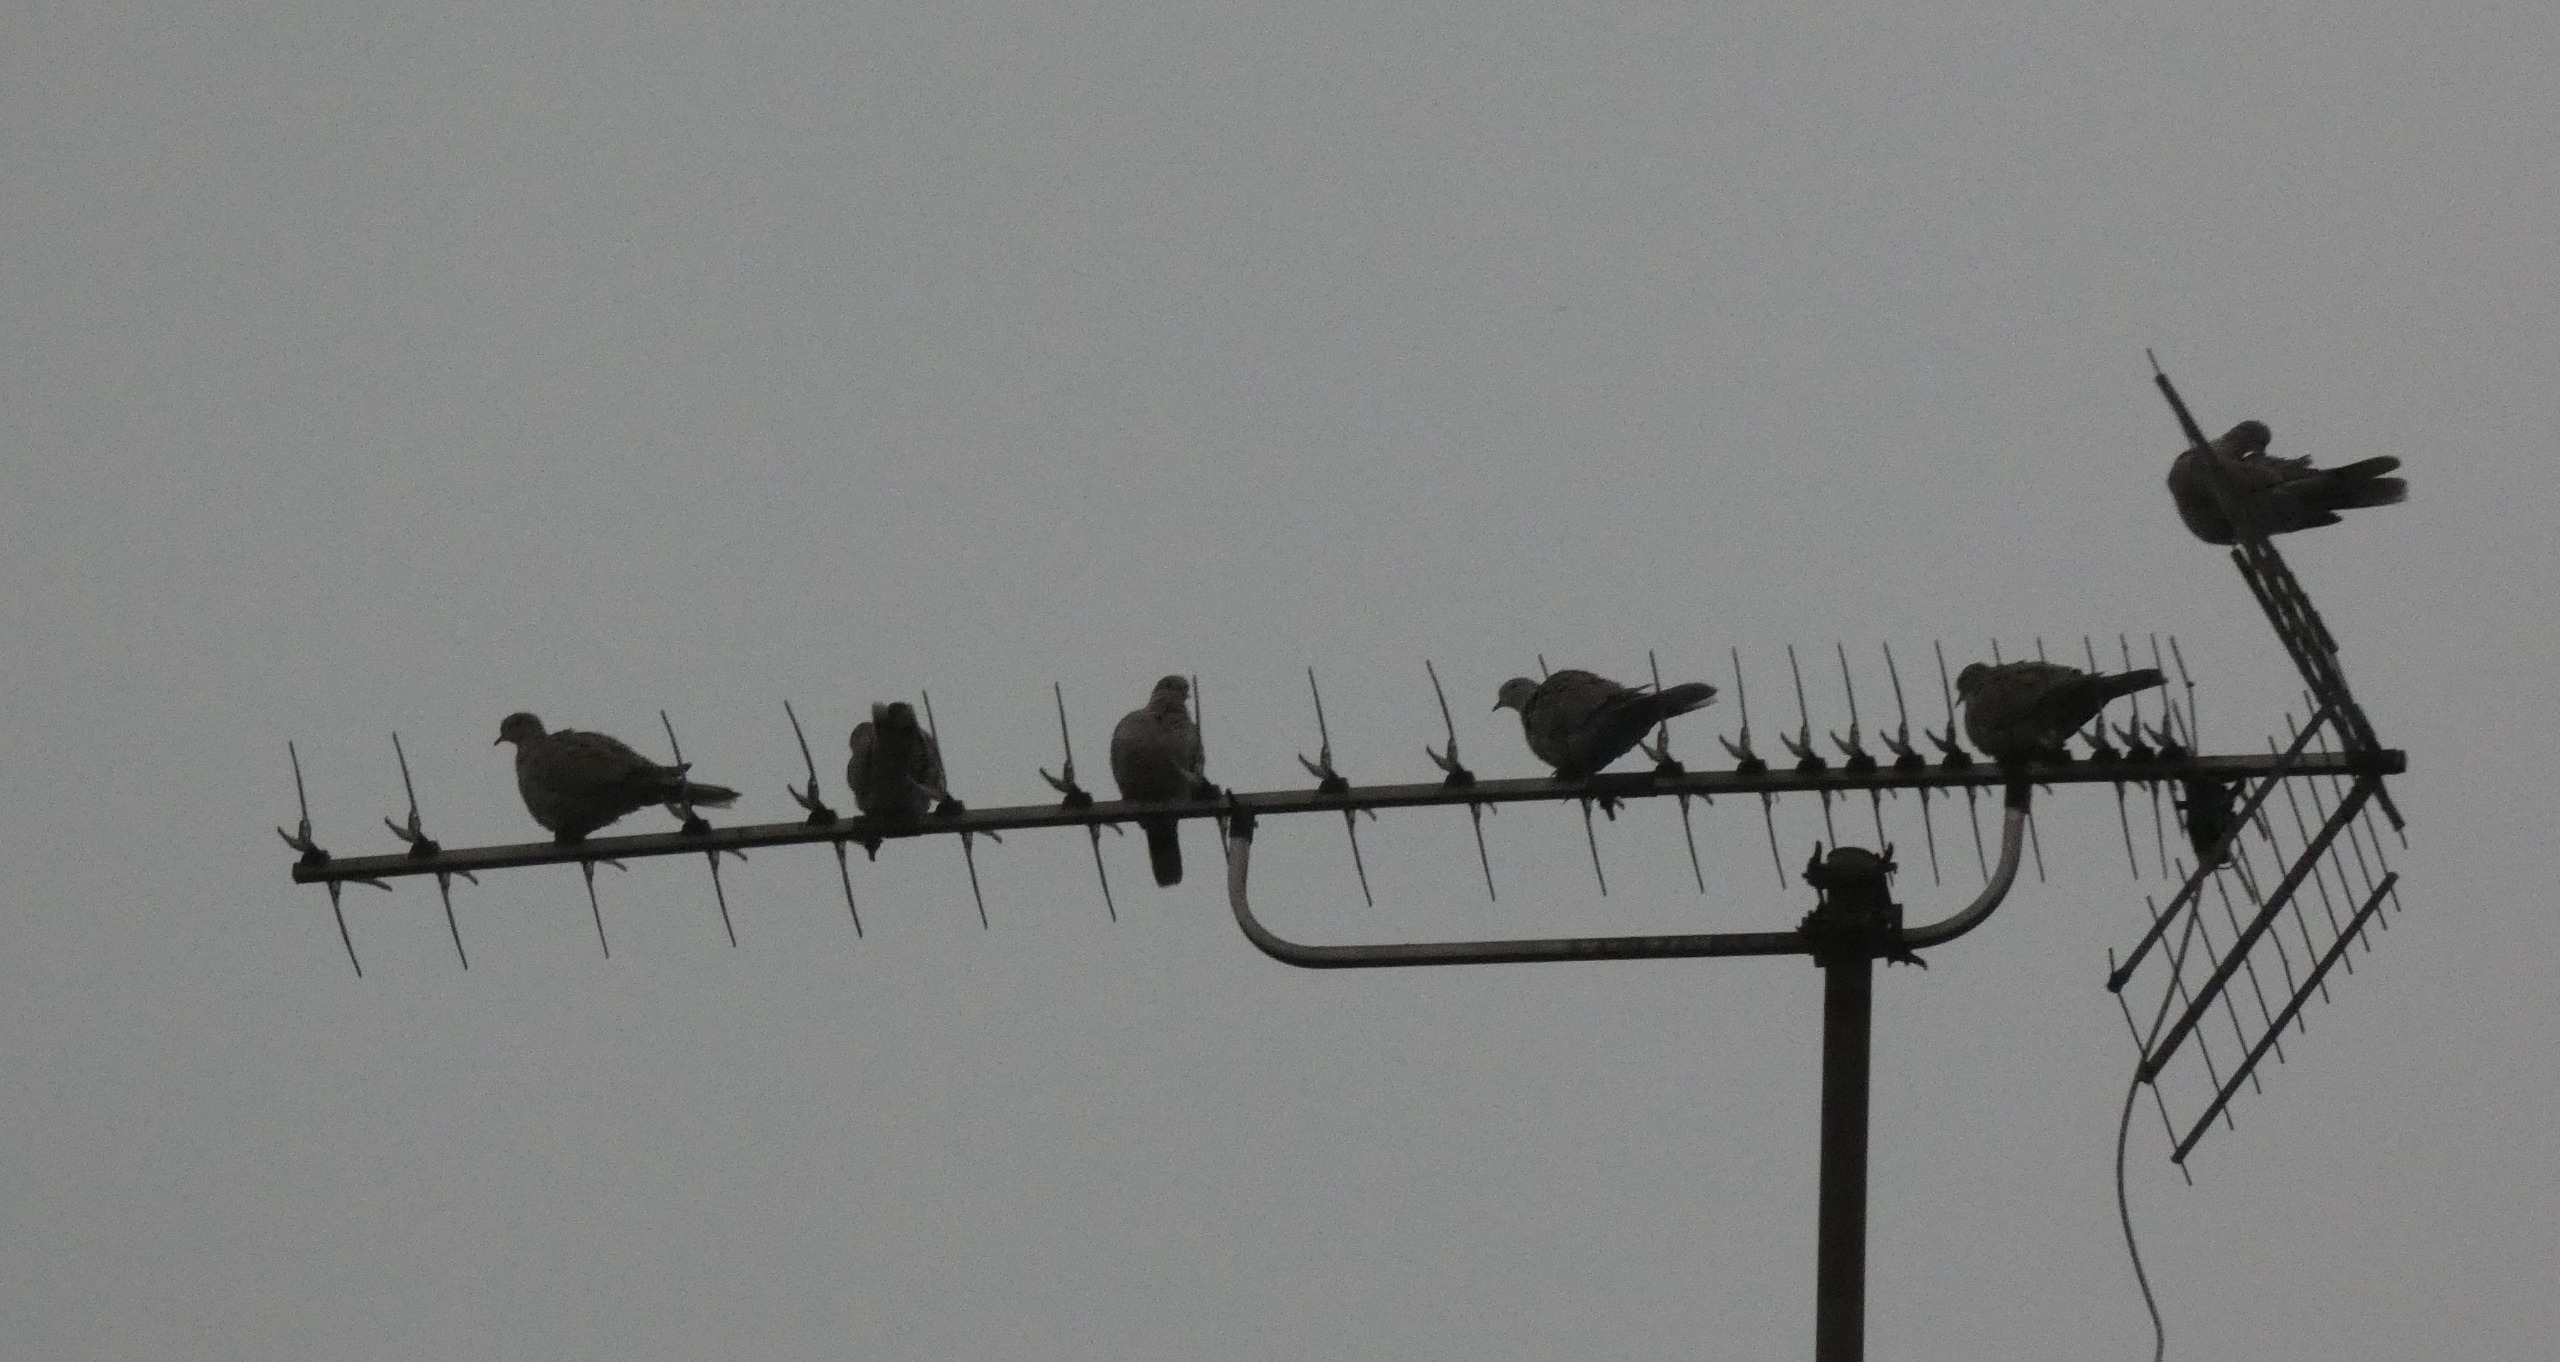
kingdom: Animalia
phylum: Chordata
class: Aves
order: Columbiformes
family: Columbidae
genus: Streptopelia
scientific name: Streptopelia decaocto
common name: Tyrkerdue
